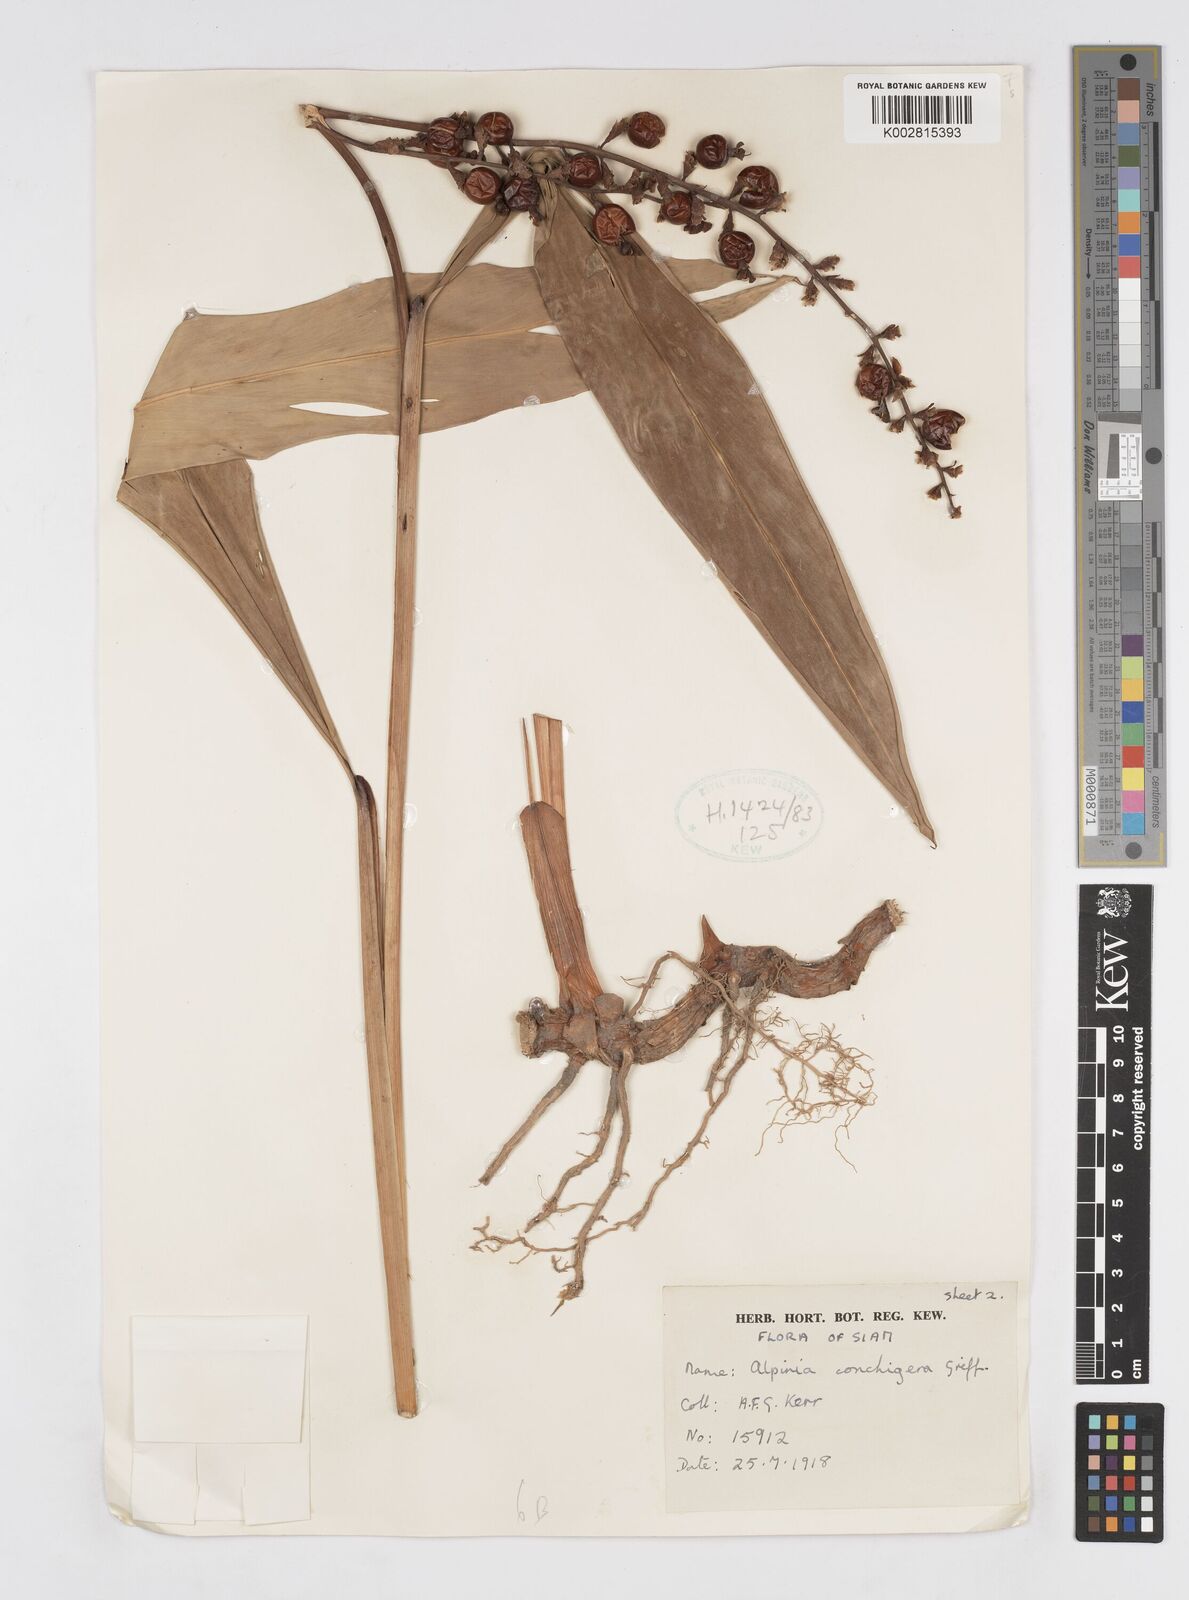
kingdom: Plantae
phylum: Tracheophyta
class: Liliopsida
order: Zingiberales
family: Zingiberaceae
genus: Alpinia
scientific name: Alpinia conchigera
